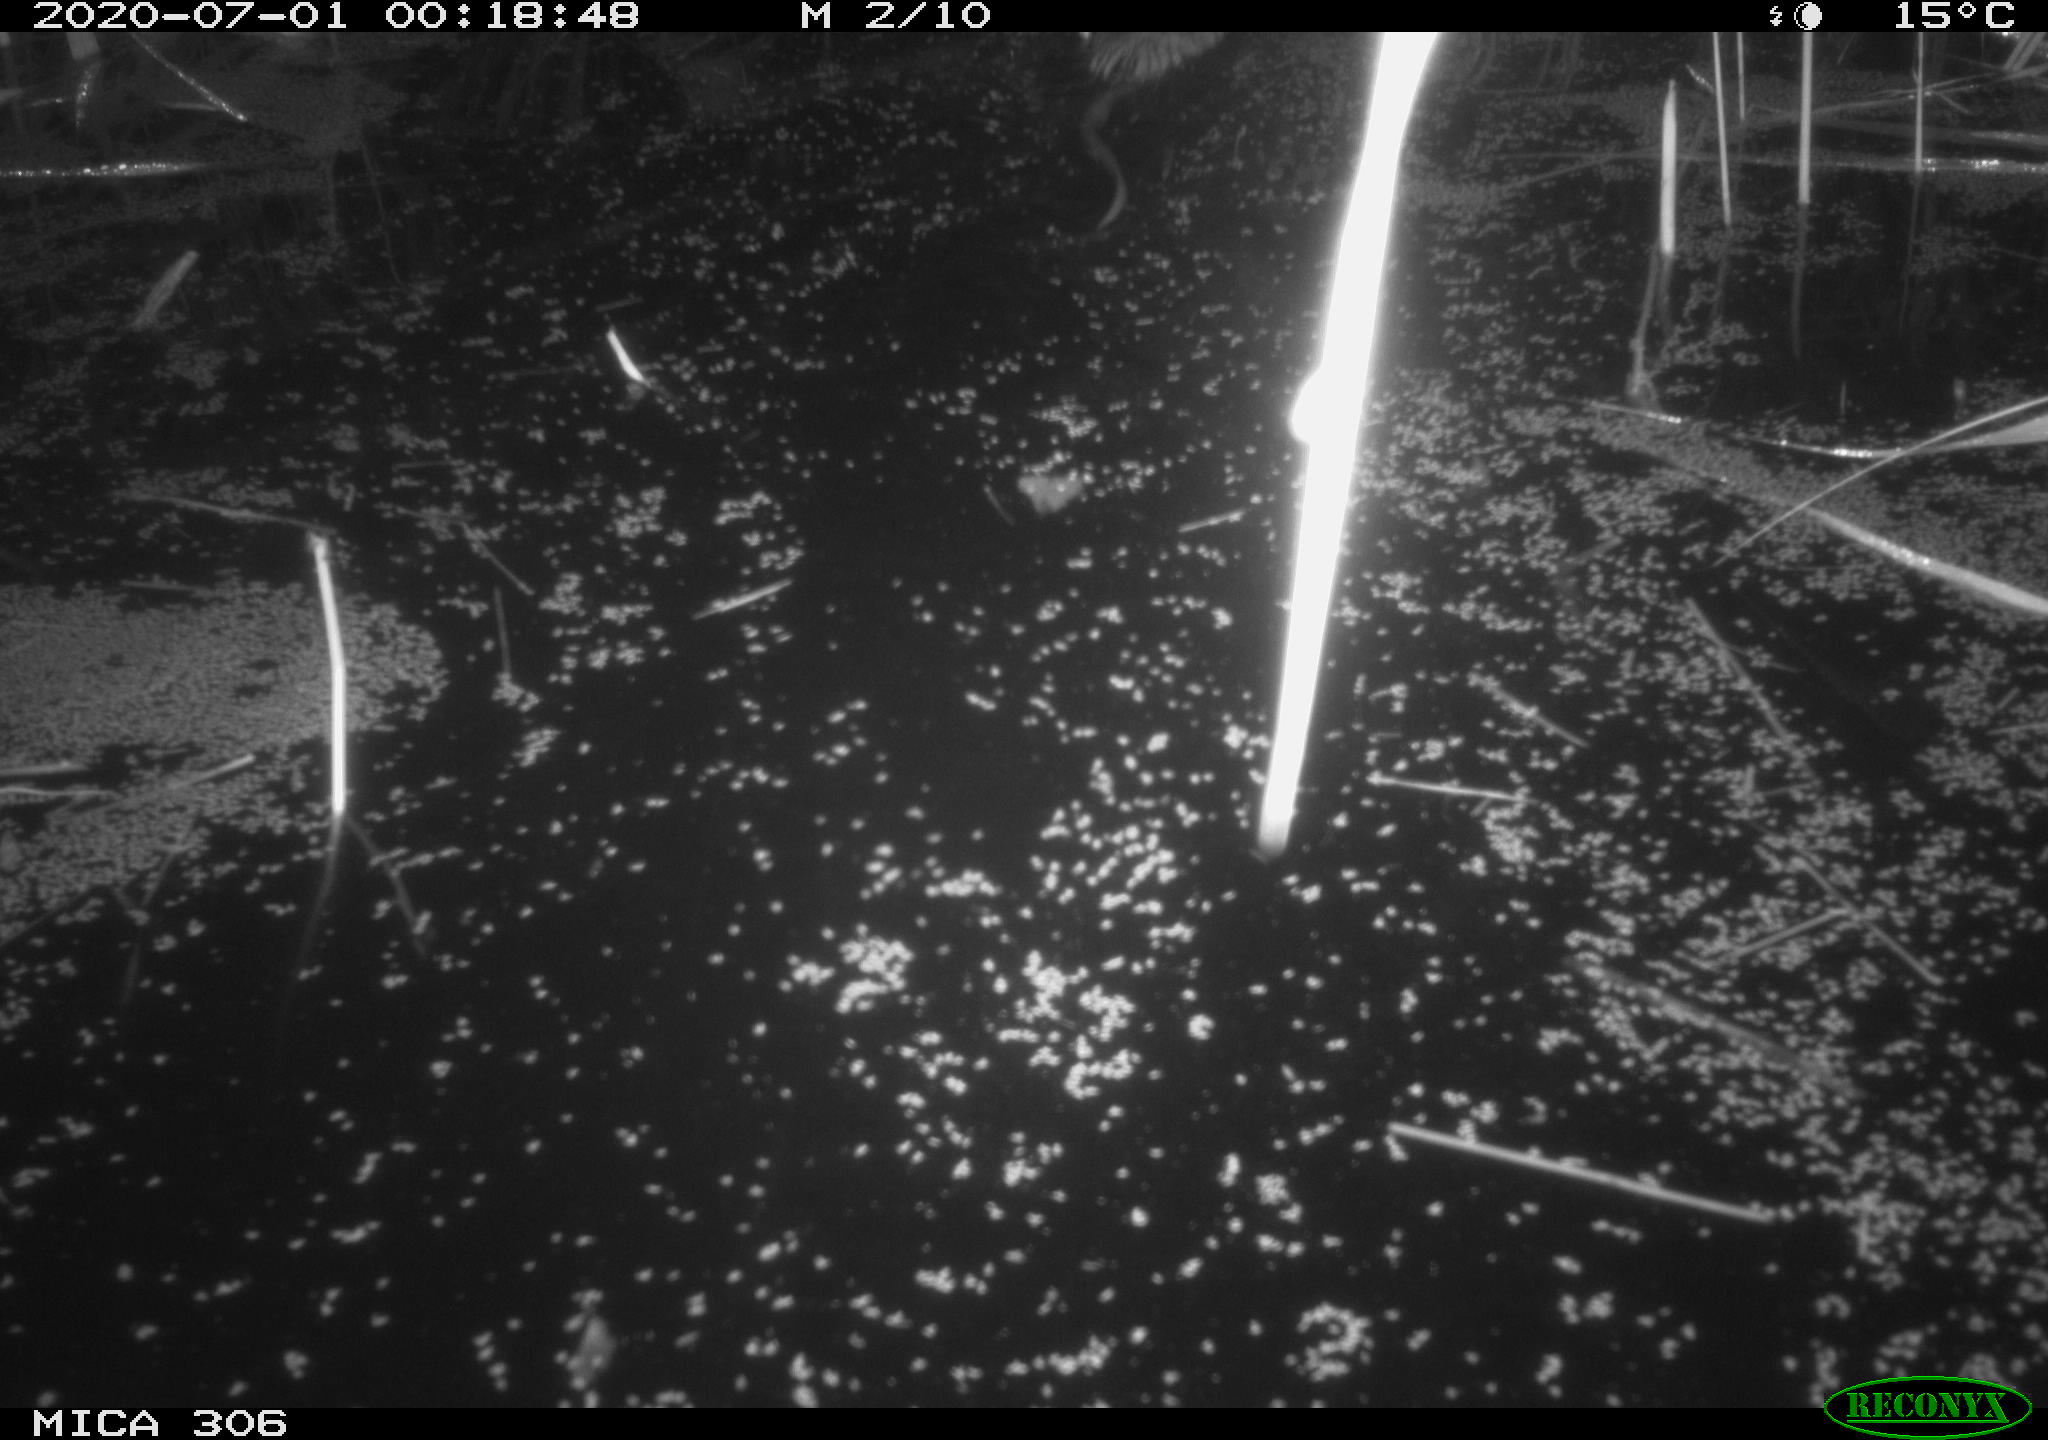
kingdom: Animalia
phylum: Chordata
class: Mammalia
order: Rodentia
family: Cricetidae
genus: Ondatra
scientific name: Ondatra zibethicus
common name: Muskrat
